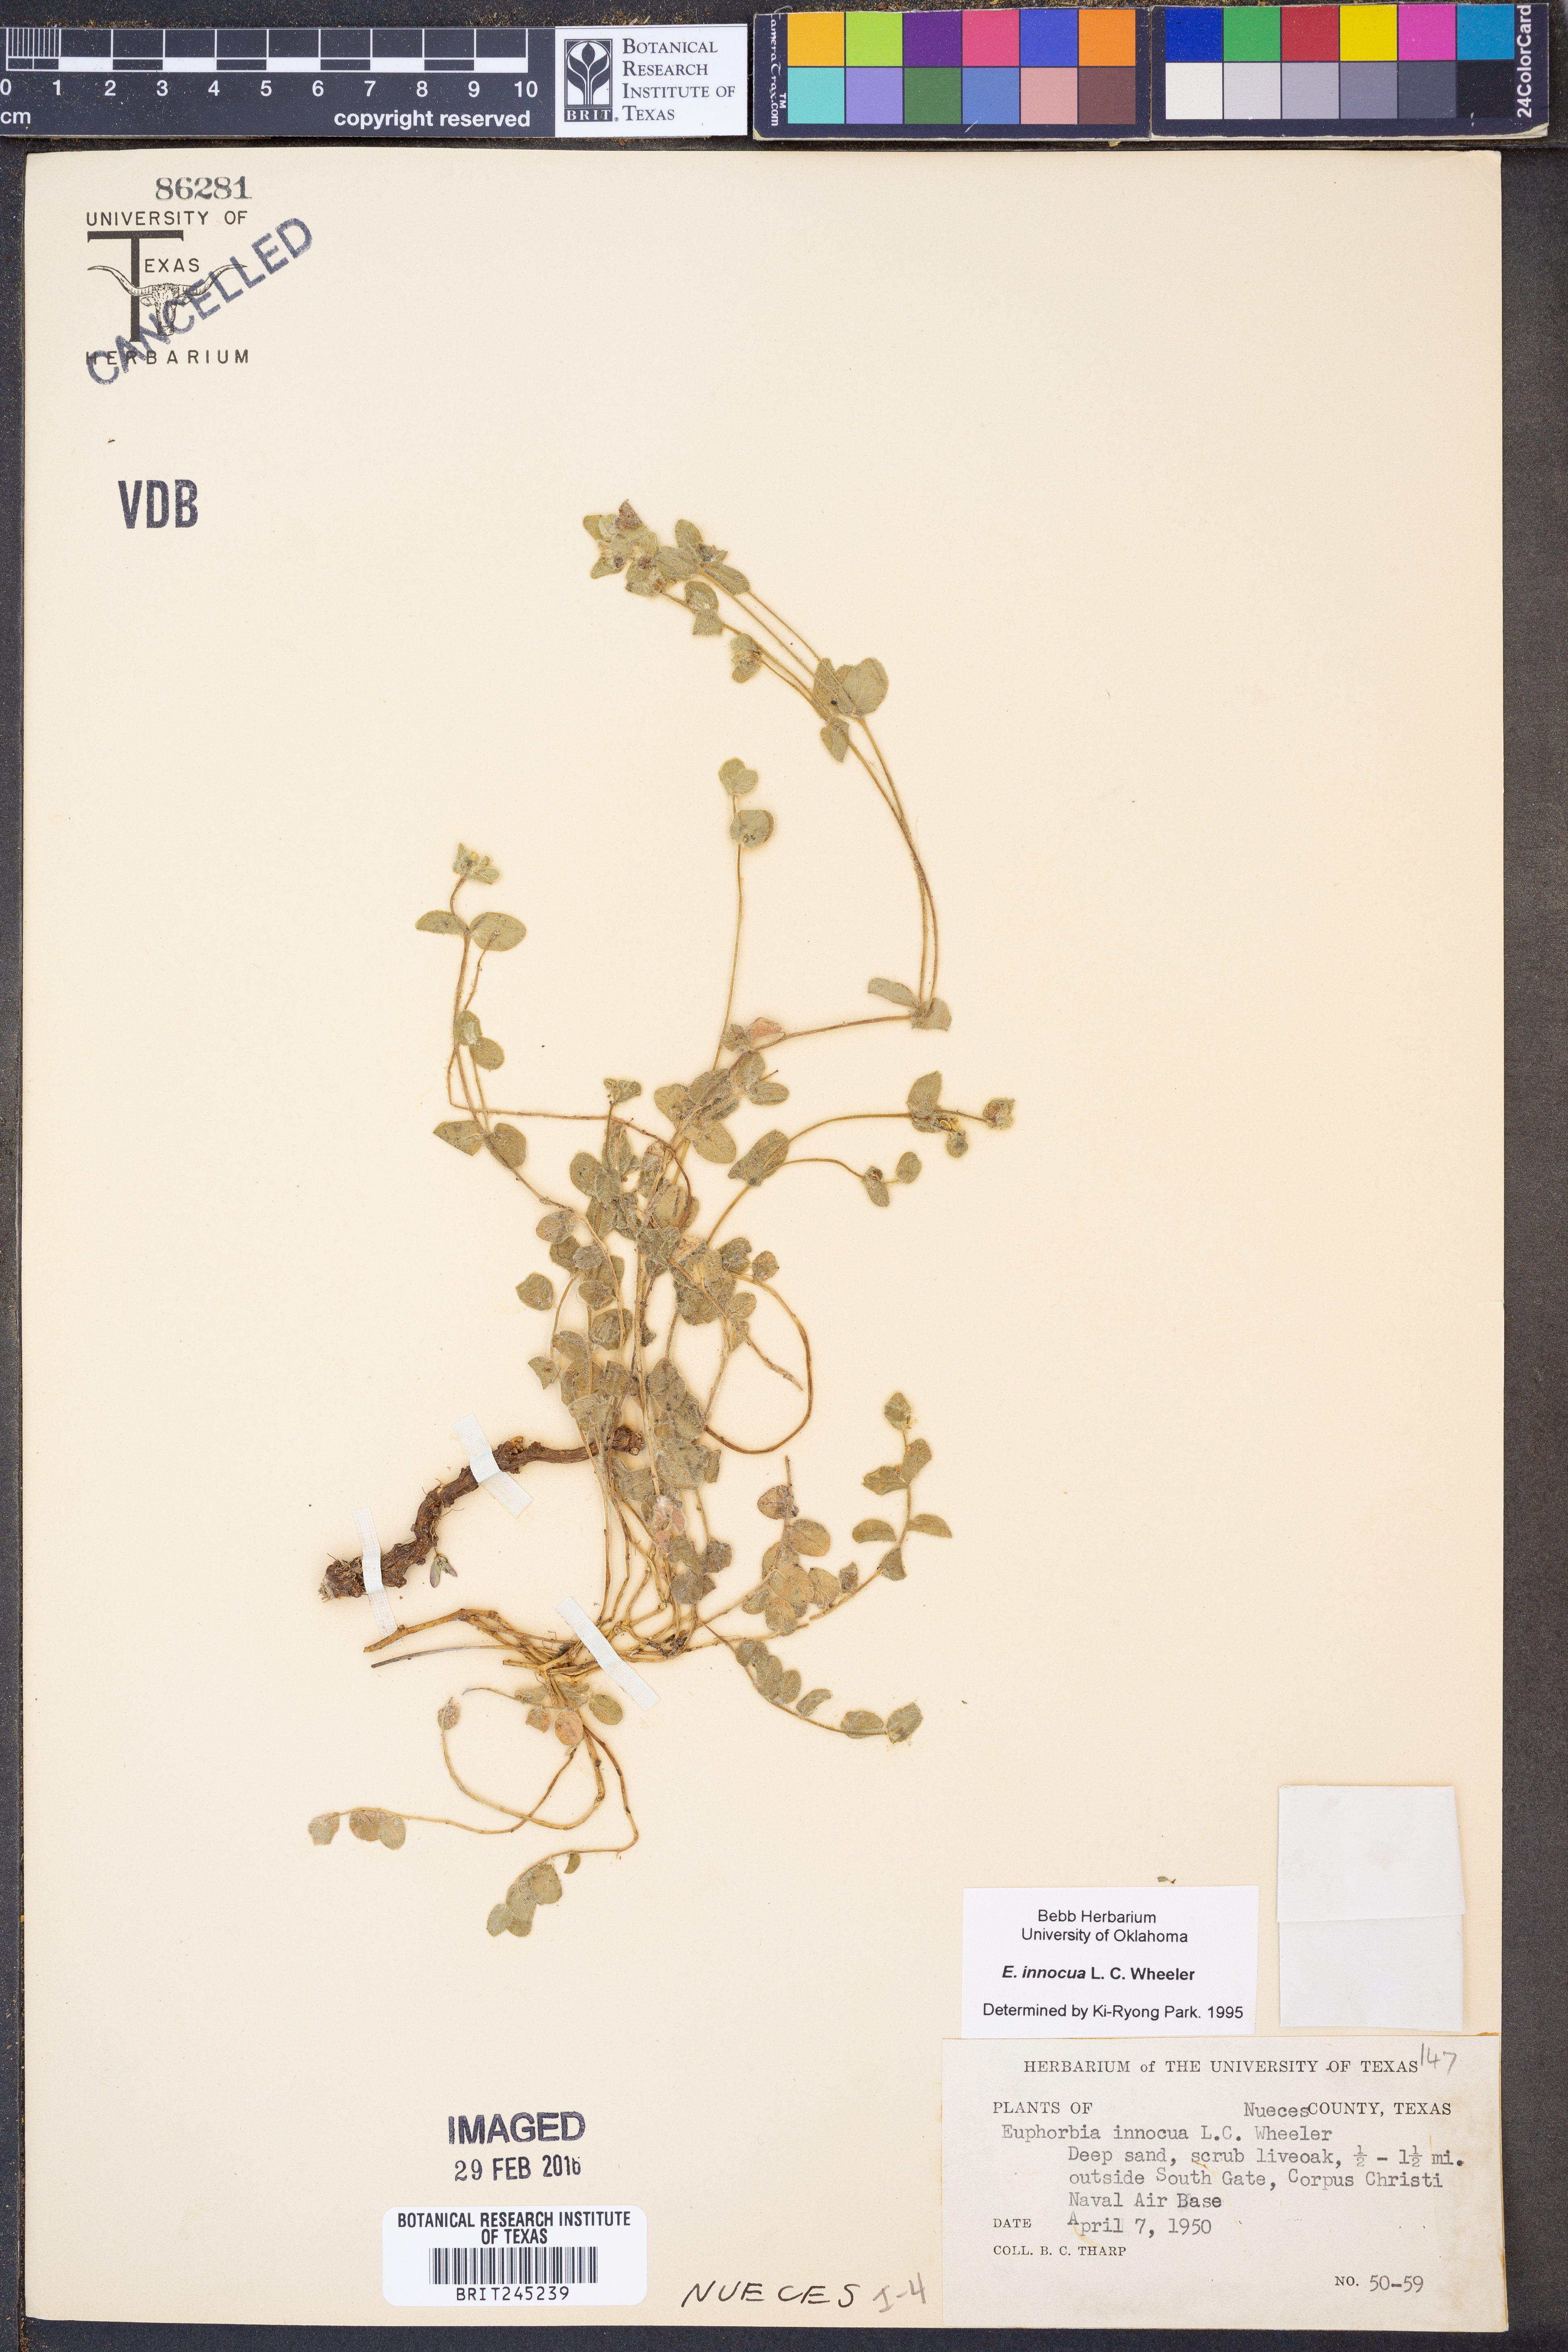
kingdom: Plantae
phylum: Tracheophyta
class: Magnoliopsida
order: Malpighiales
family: Euphorbiaceae
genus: Euphorbia
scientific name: Euphorbia innocua
